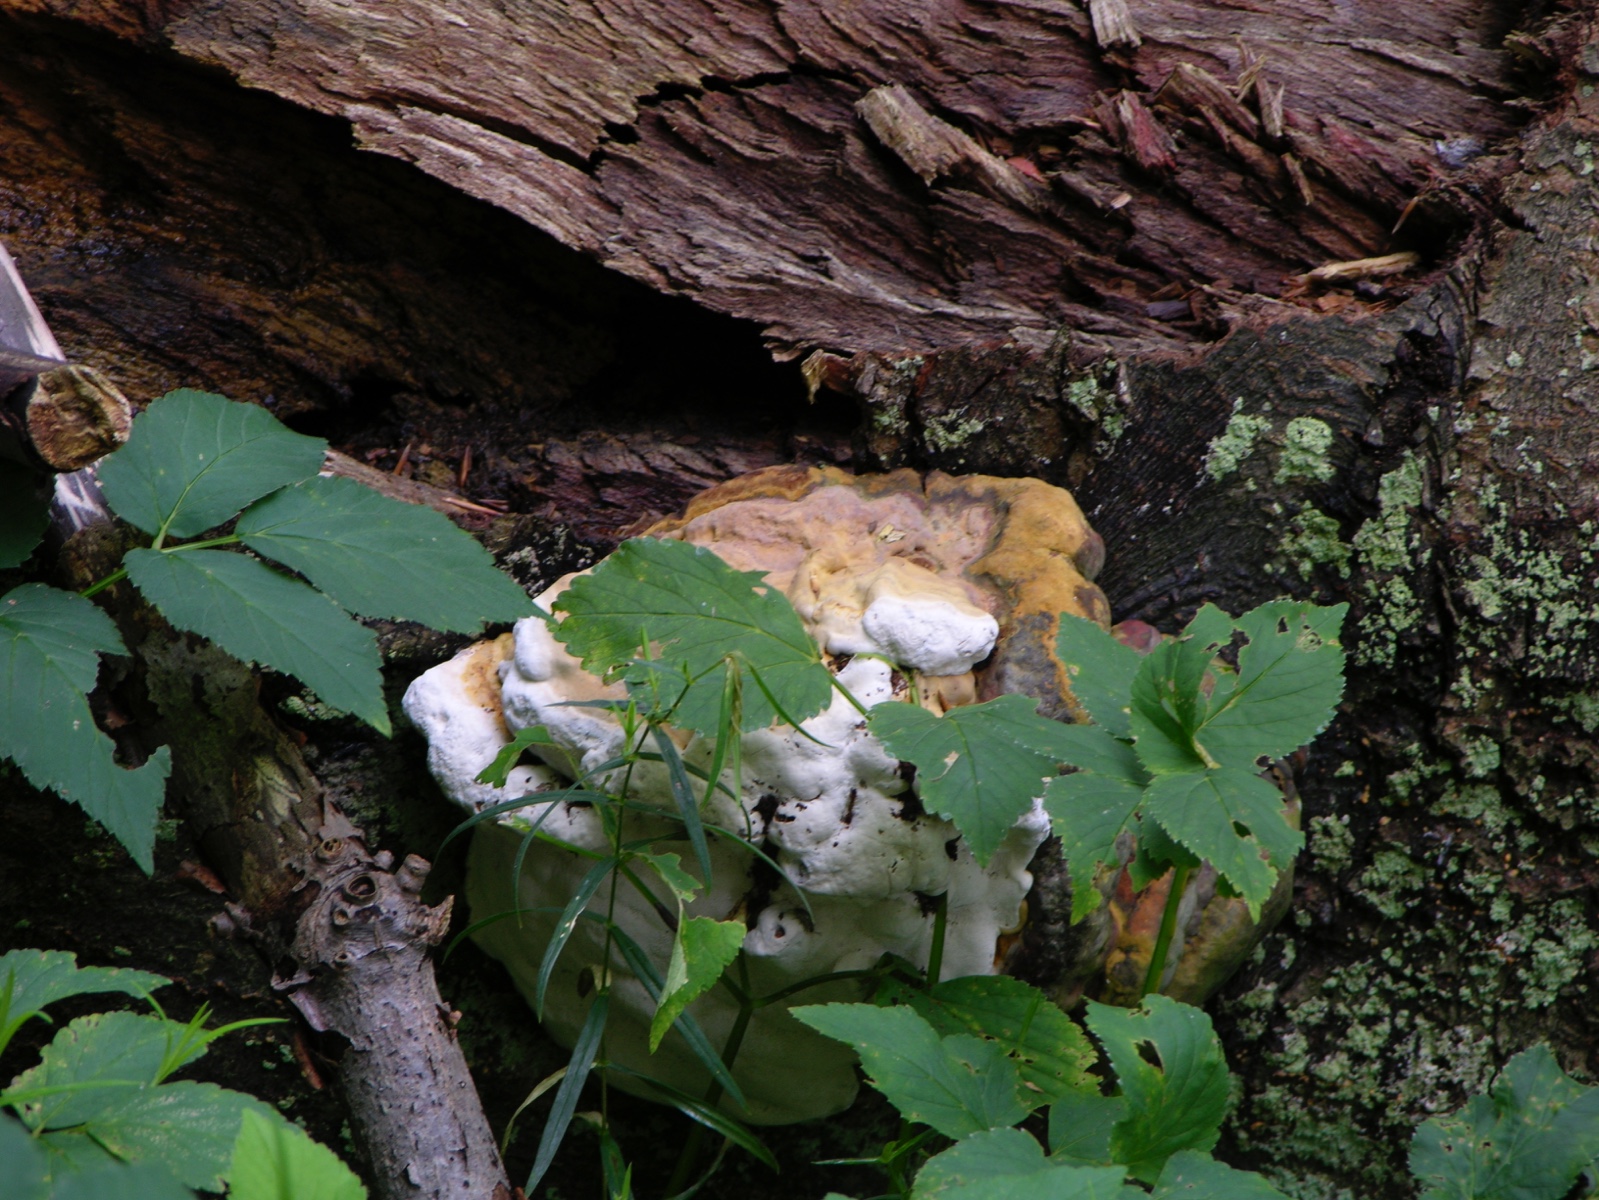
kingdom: Fungi
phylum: Basidiomycota
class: Agaricomycetes
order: Polyporales
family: Polyporaceae
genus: Ganoderma
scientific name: Ganoderma pfeifferi
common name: kobberrød lakporesvamp
